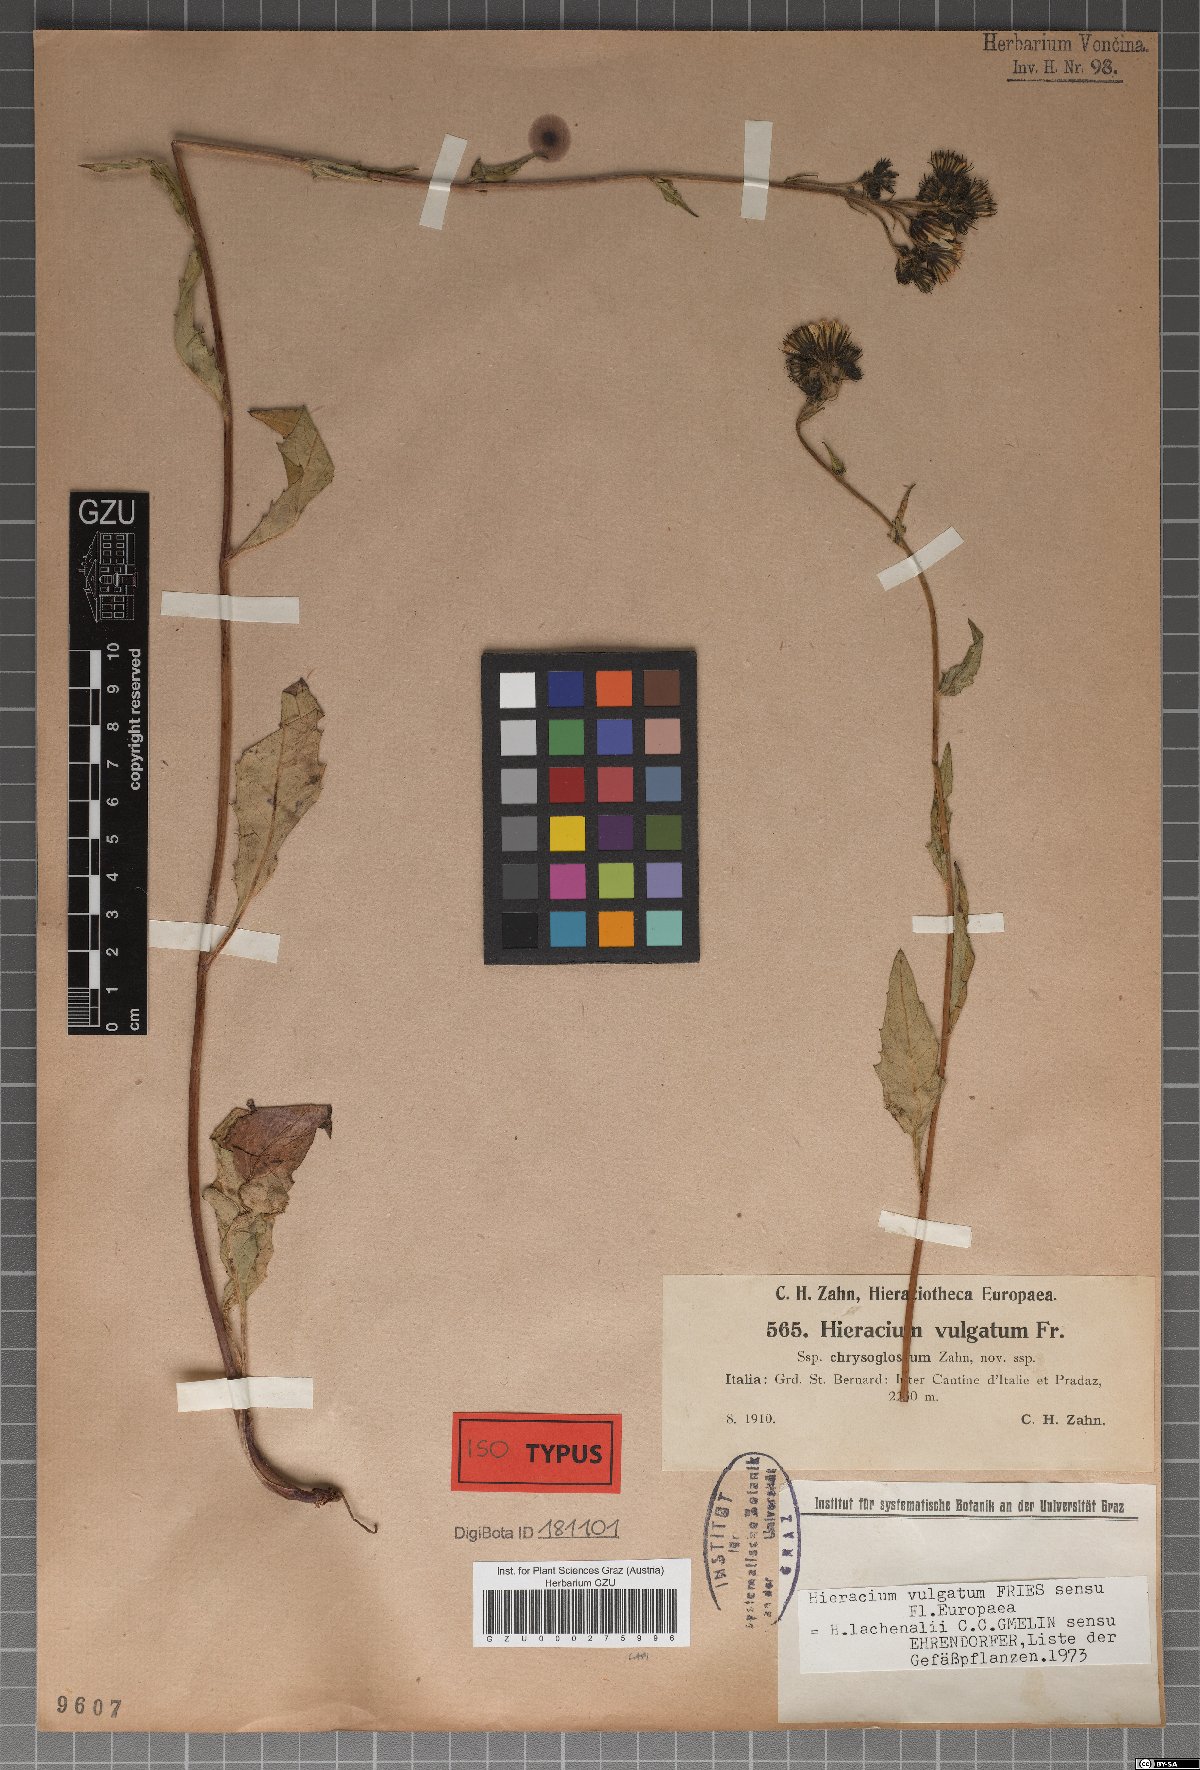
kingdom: Plantae
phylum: Tracheophyta
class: Magnoliopsida
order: Asterales
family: Asteraceae
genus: Hieracium
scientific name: Hieracium lachenalii
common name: Common hawkweed
